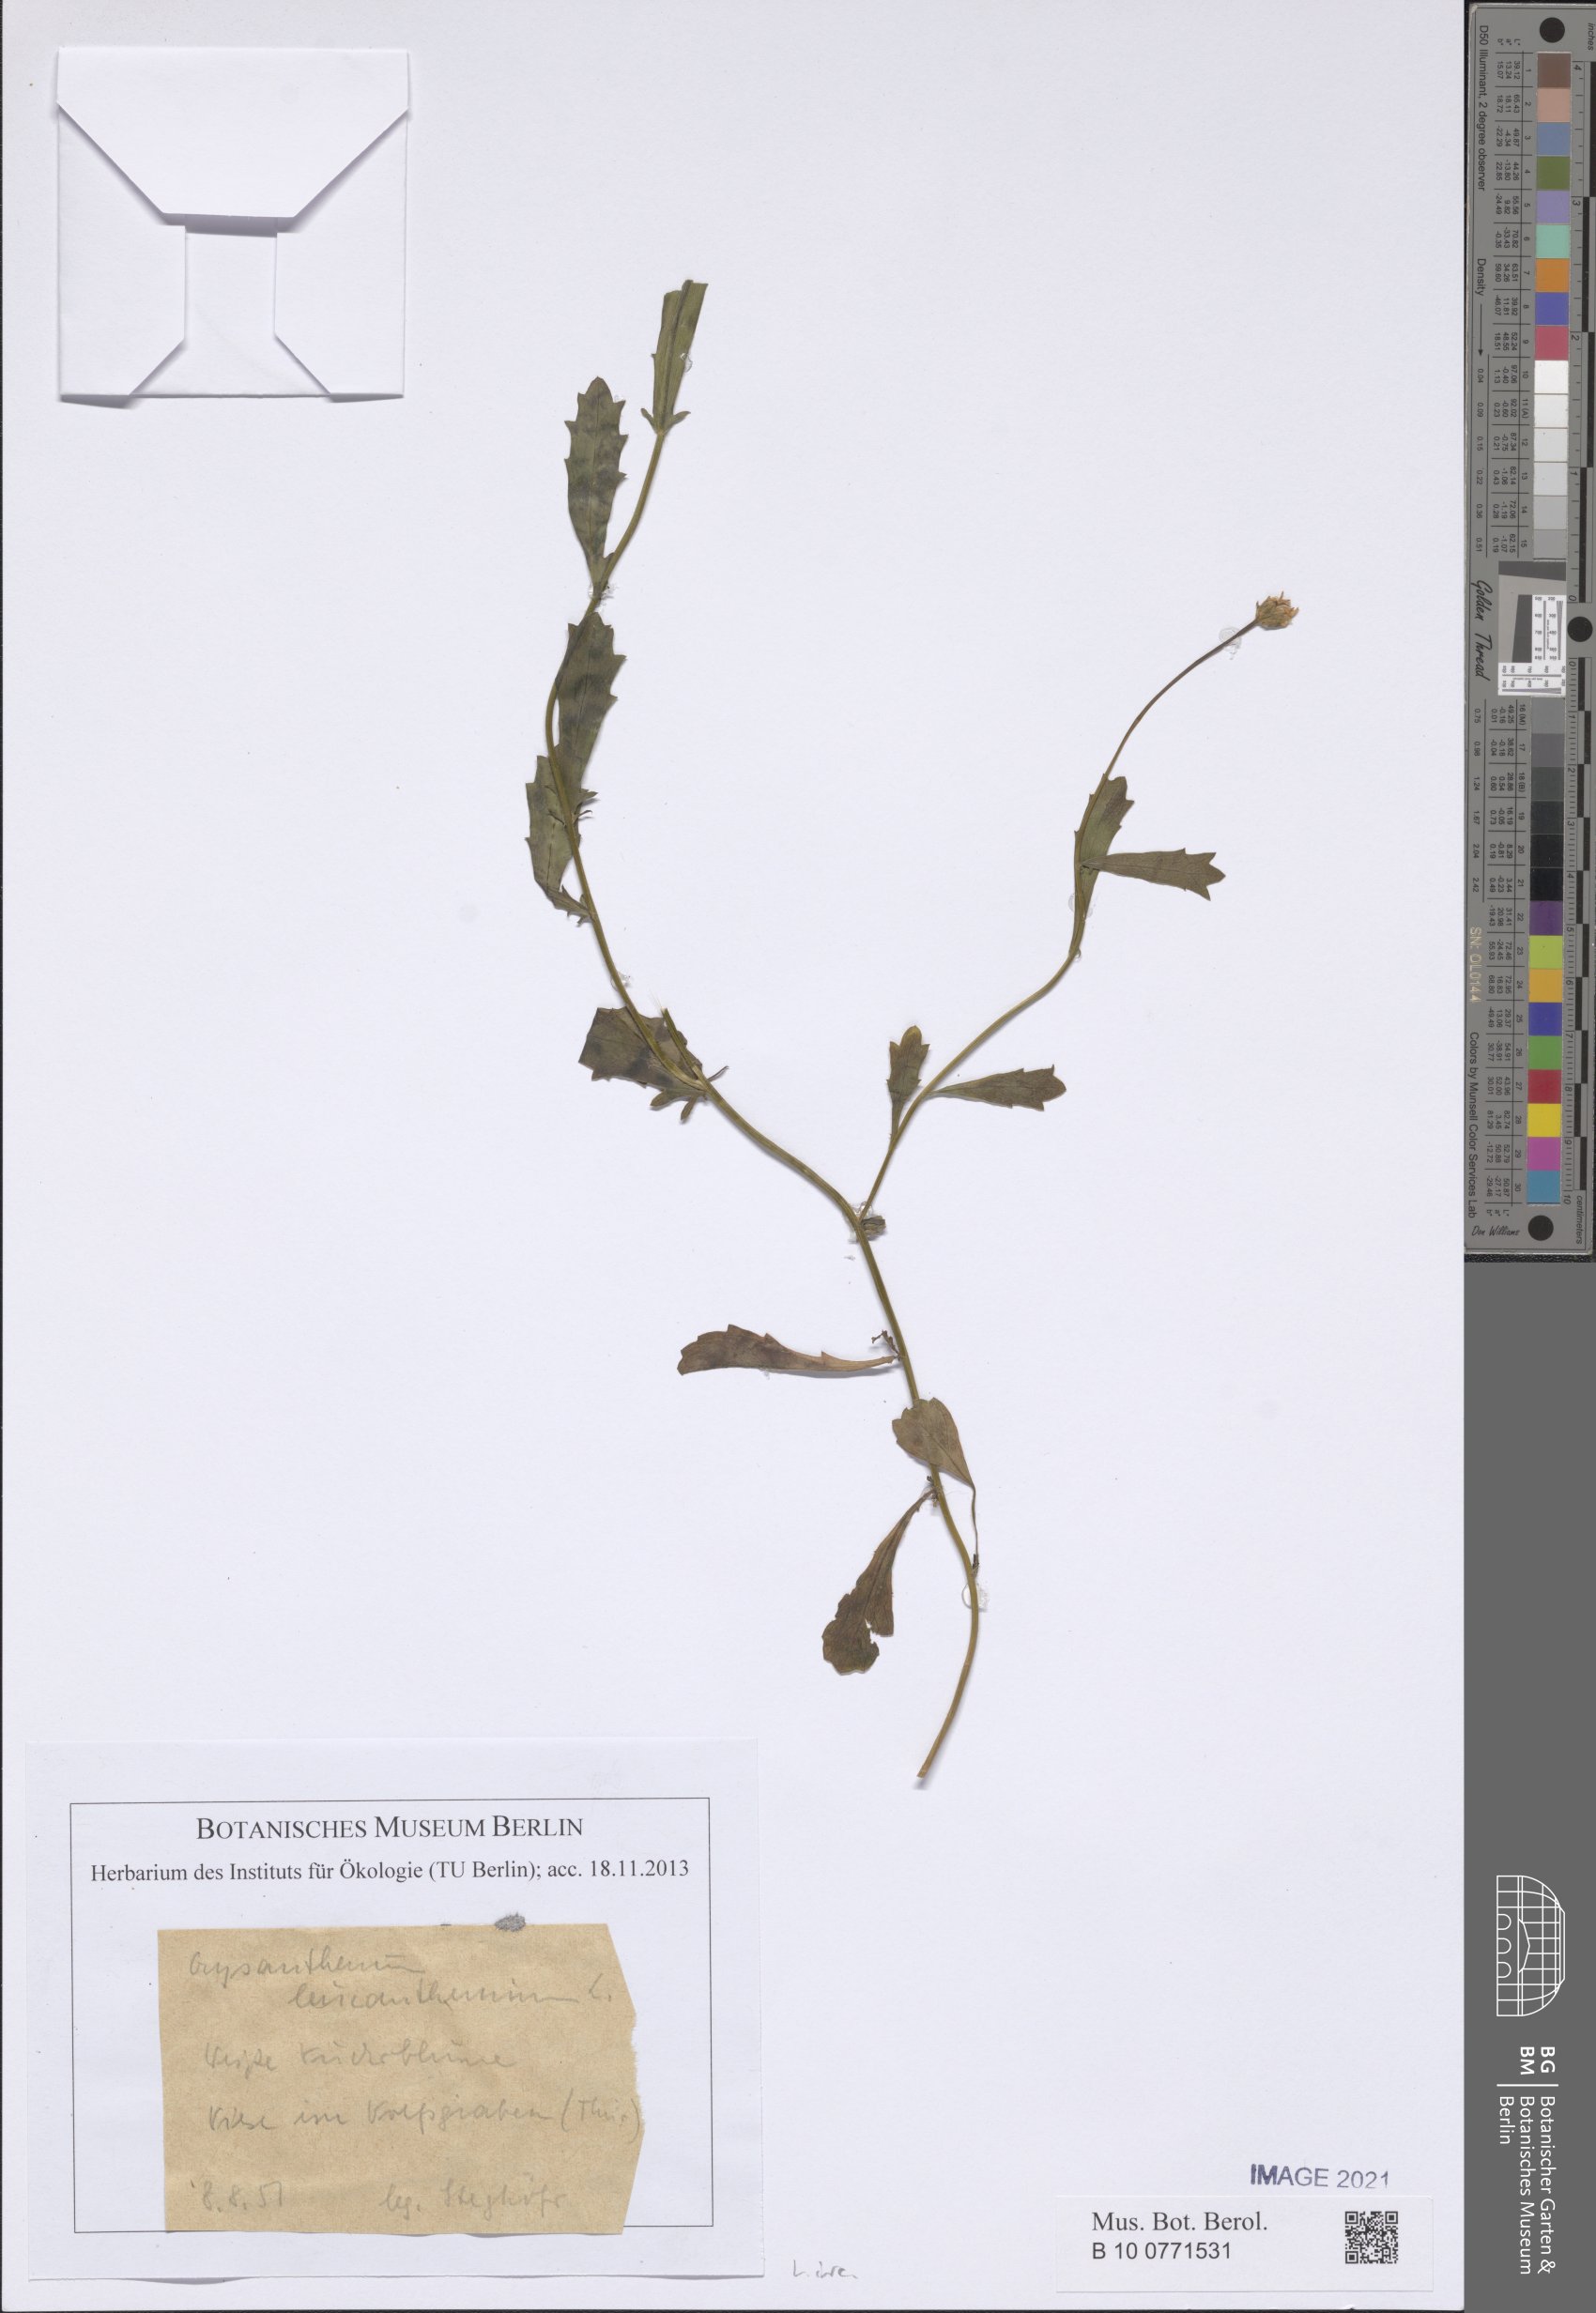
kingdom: Plantae
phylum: Tracheophyta
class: Magnoliopsida
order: Asterales
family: Asteraceae
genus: Leucanthemum
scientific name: Leucanthemum ircutianum
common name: Daisy
